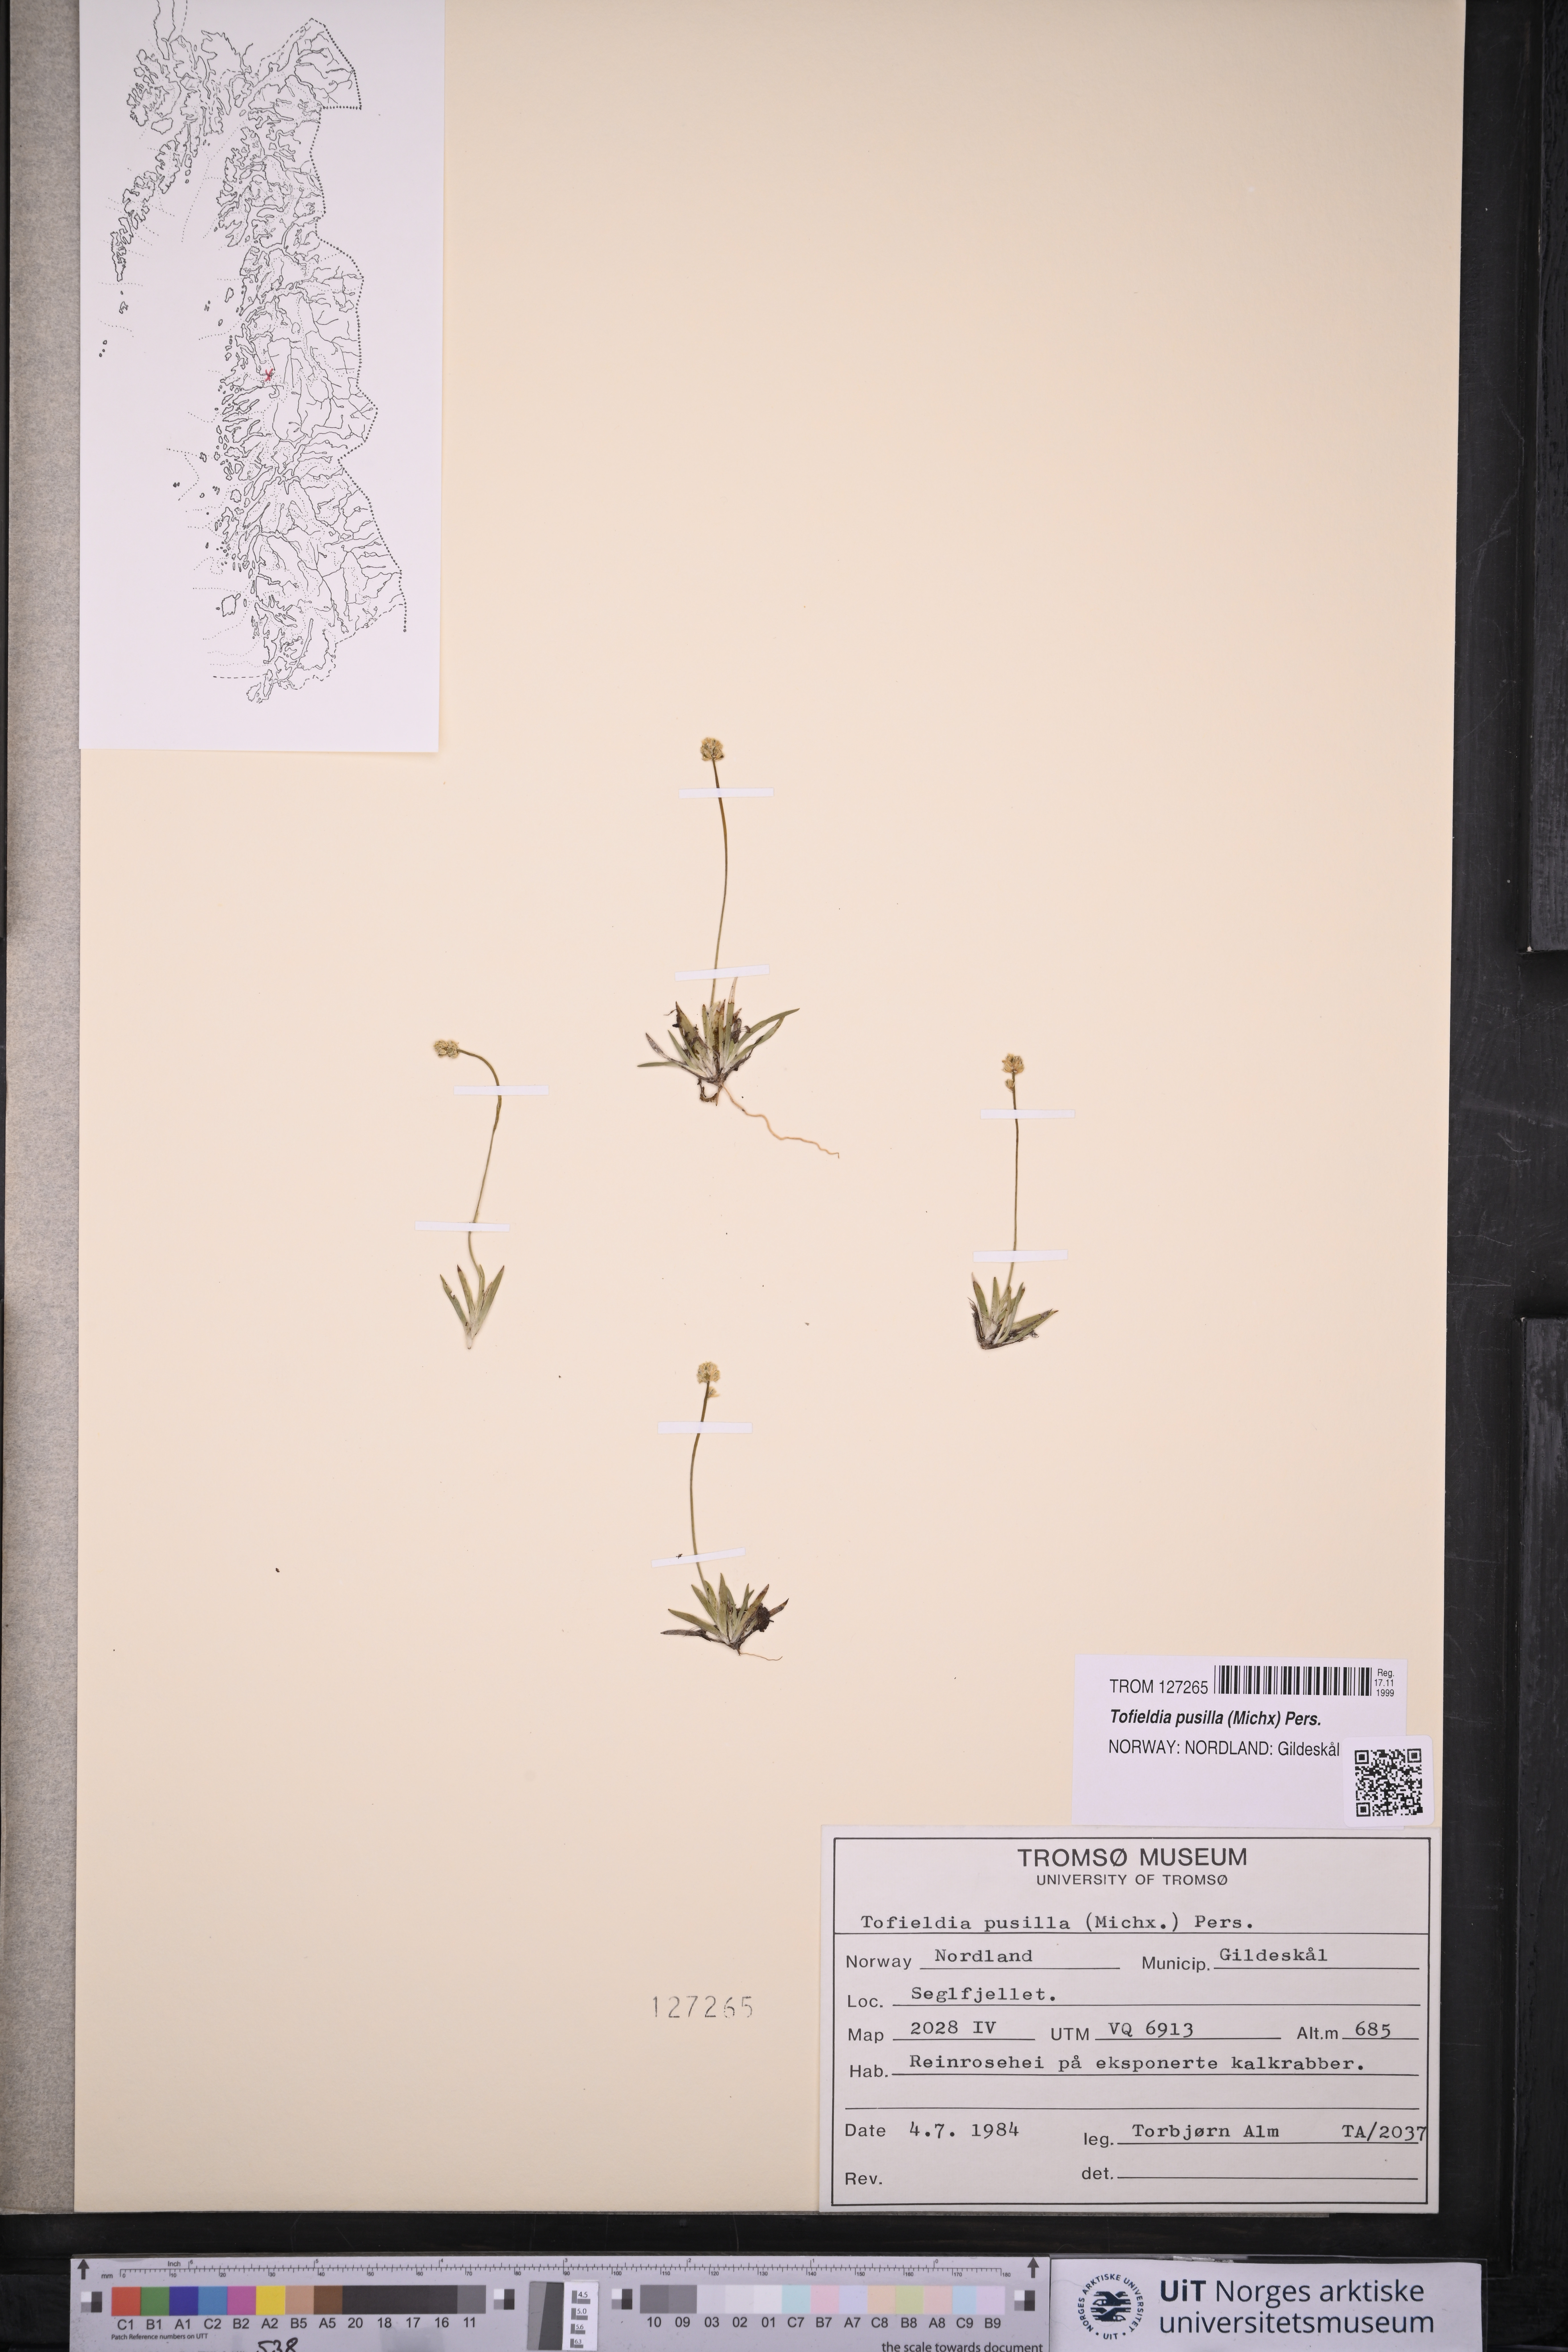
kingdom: Plantae
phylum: Tracheophyta
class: Liliopsida
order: Alismatales
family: Tofieldiaceae
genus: Tofieldia
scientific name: Tofieldia pusilla
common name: Scottish false asphodel
